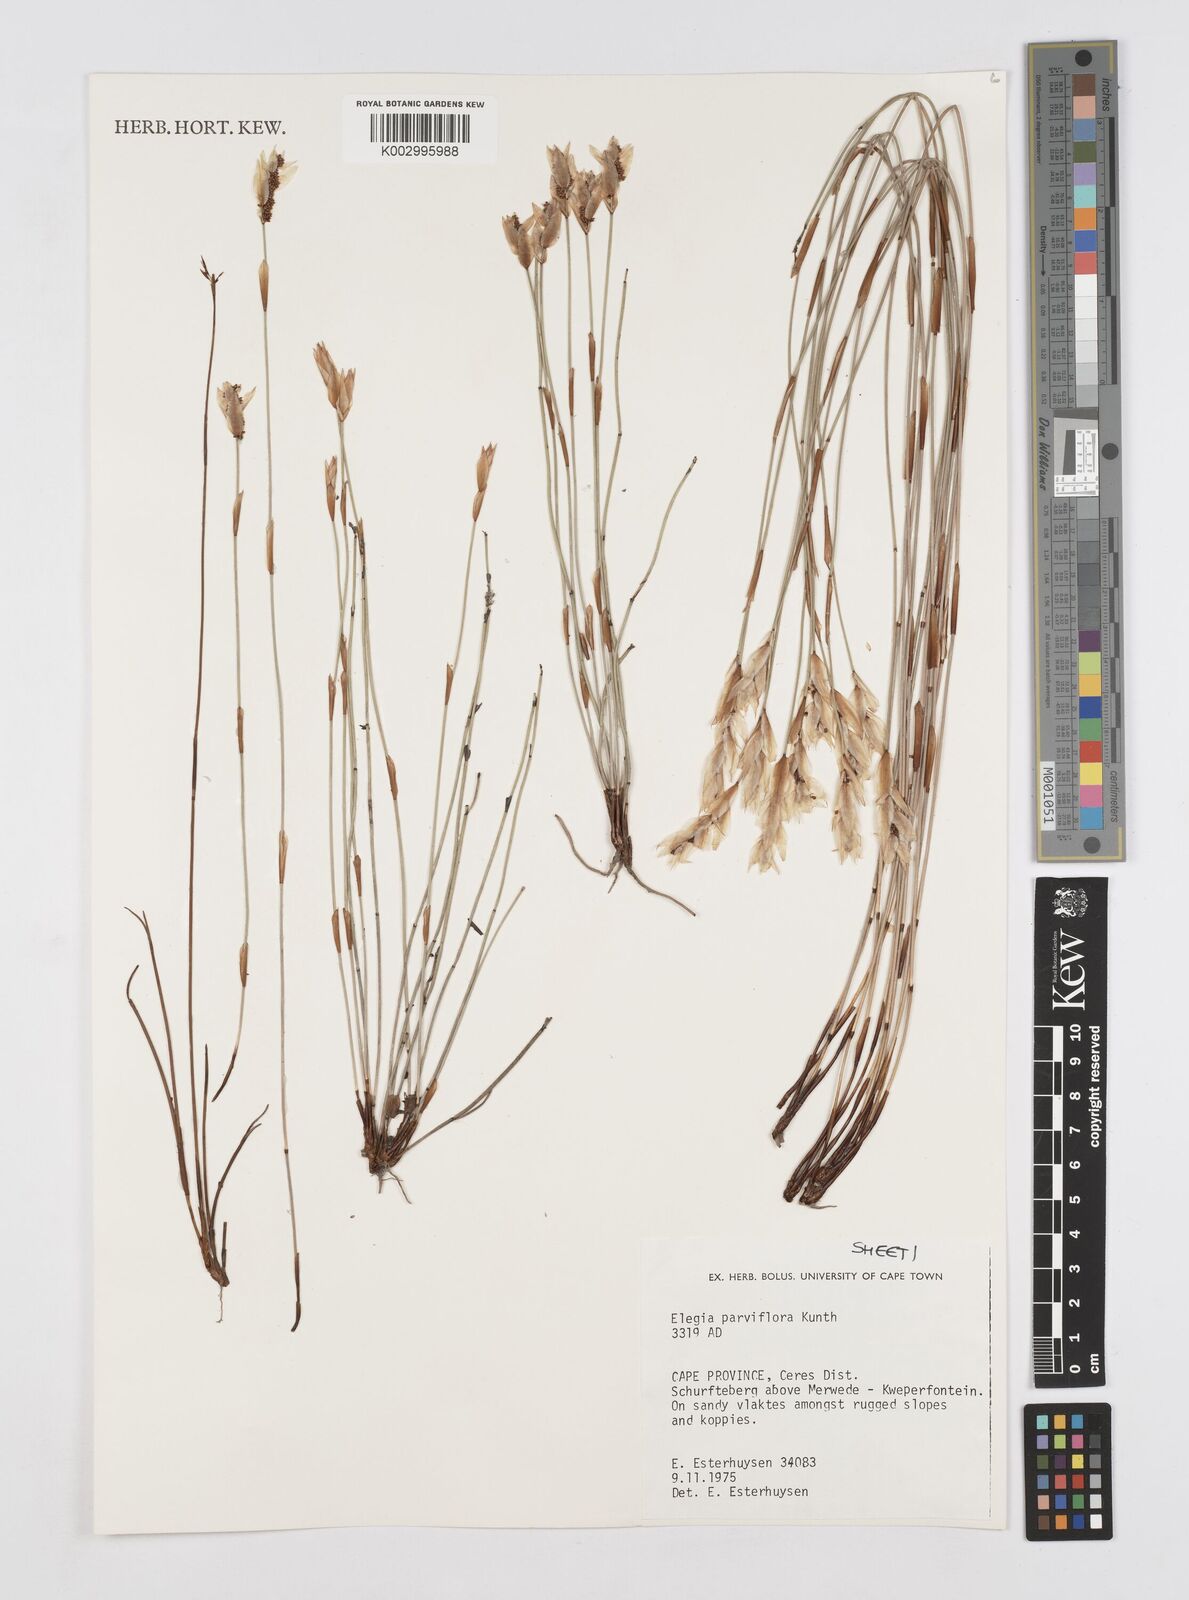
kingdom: Plantae
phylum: Tracheophyta
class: Liliopsida
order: Poales
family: Restionaceae
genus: Cannomois
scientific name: Cannomois parviflora
